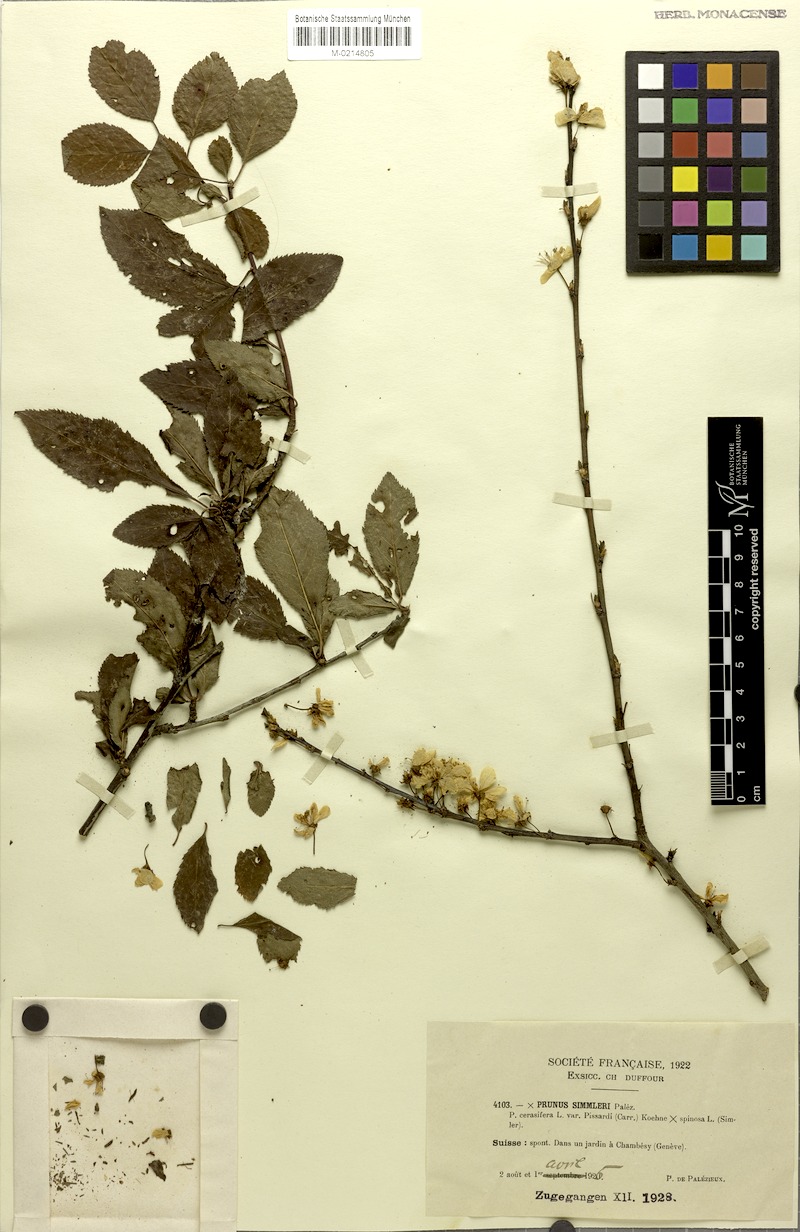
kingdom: Plantae
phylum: Tracheophyta
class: Magnoliopsida
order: Rosales
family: Rosaceae
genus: Prunus
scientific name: Prunus
